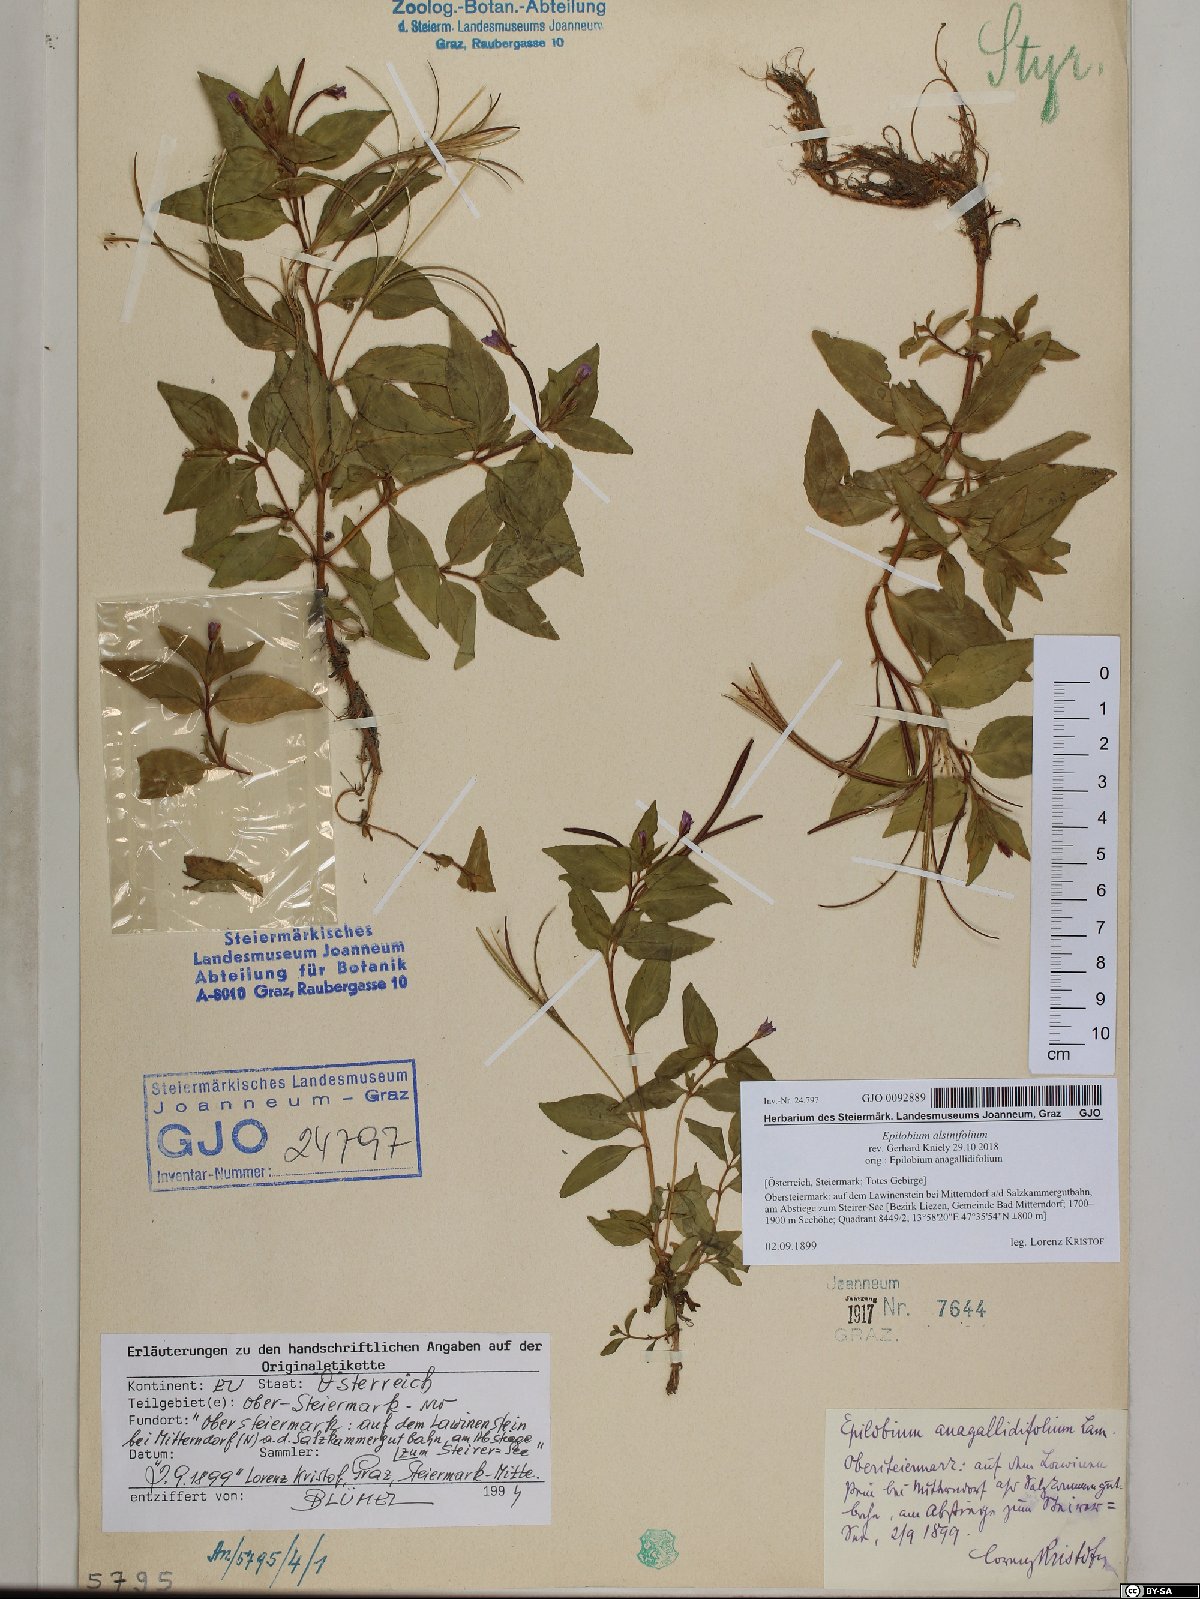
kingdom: Plantae
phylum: Tracheophyta
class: Magnoliopsida
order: Myrtales
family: Onagraceae
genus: Epilobium
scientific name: Epilobium alsinifolium
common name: Chickweed willowherb
